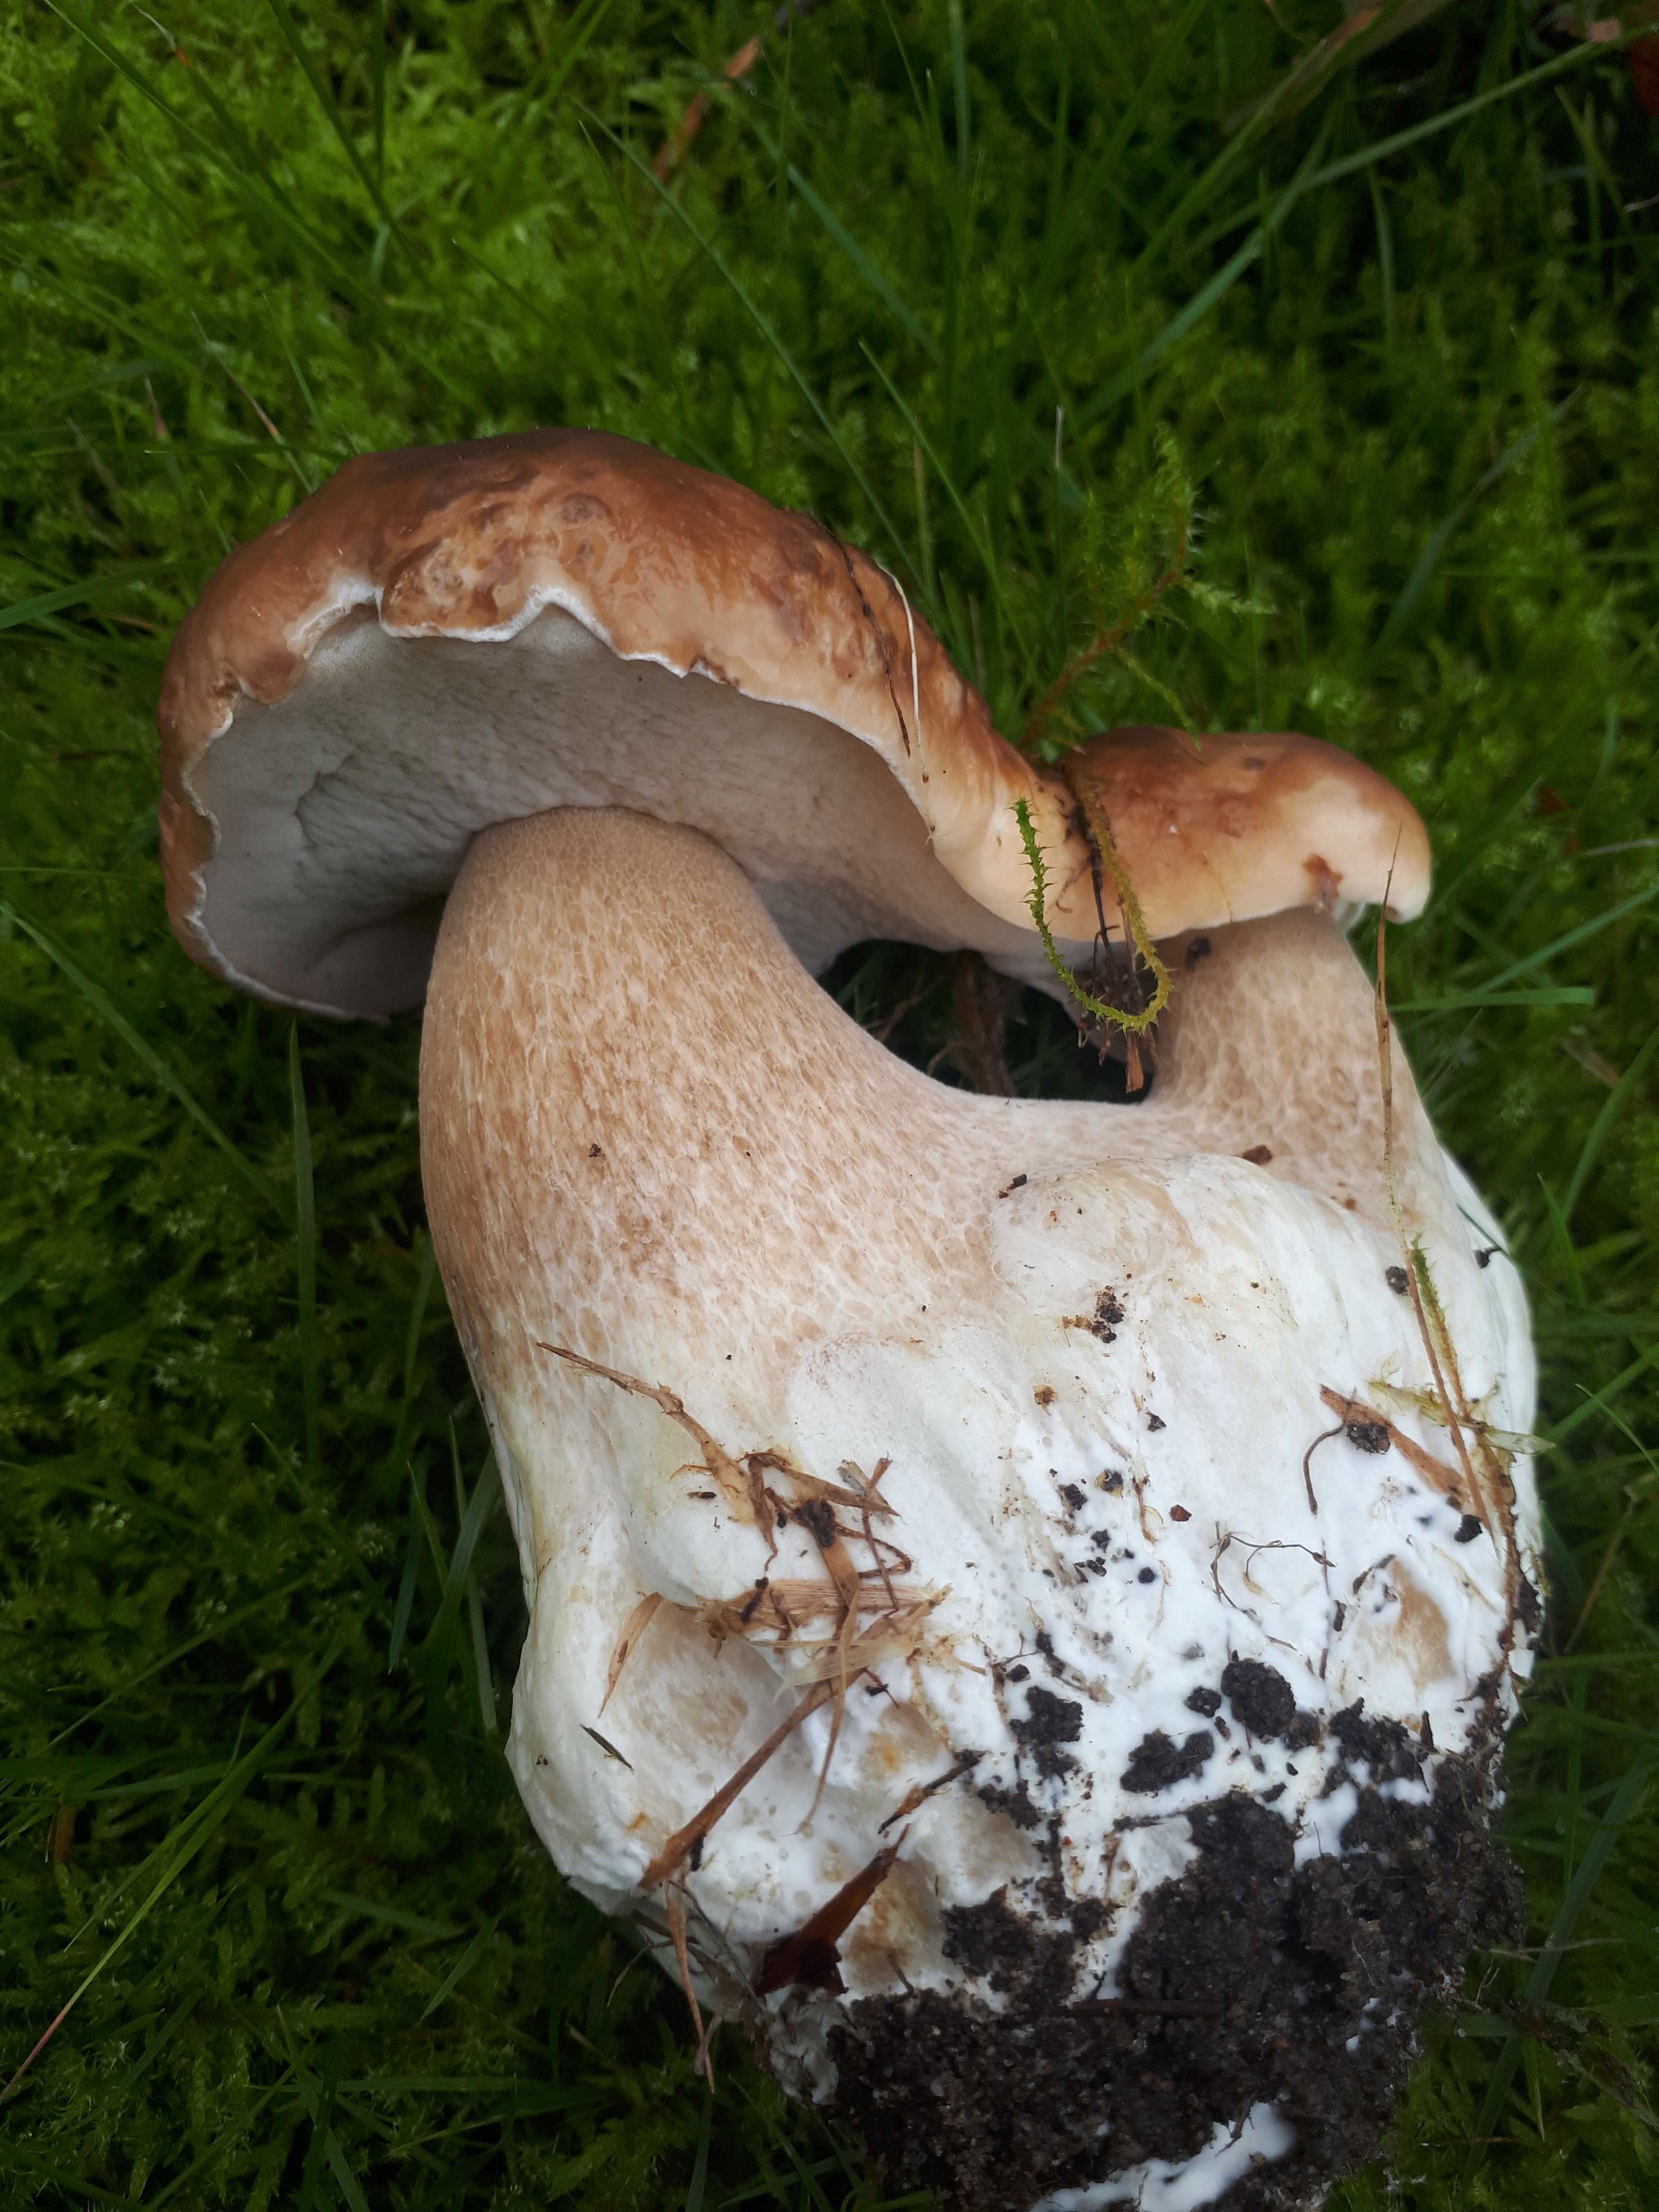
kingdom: Fungi
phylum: Basidiomycota
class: Agaricomycetes
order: Boletales
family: Boletaceae
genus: Boletus
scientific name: Boletus edulis
